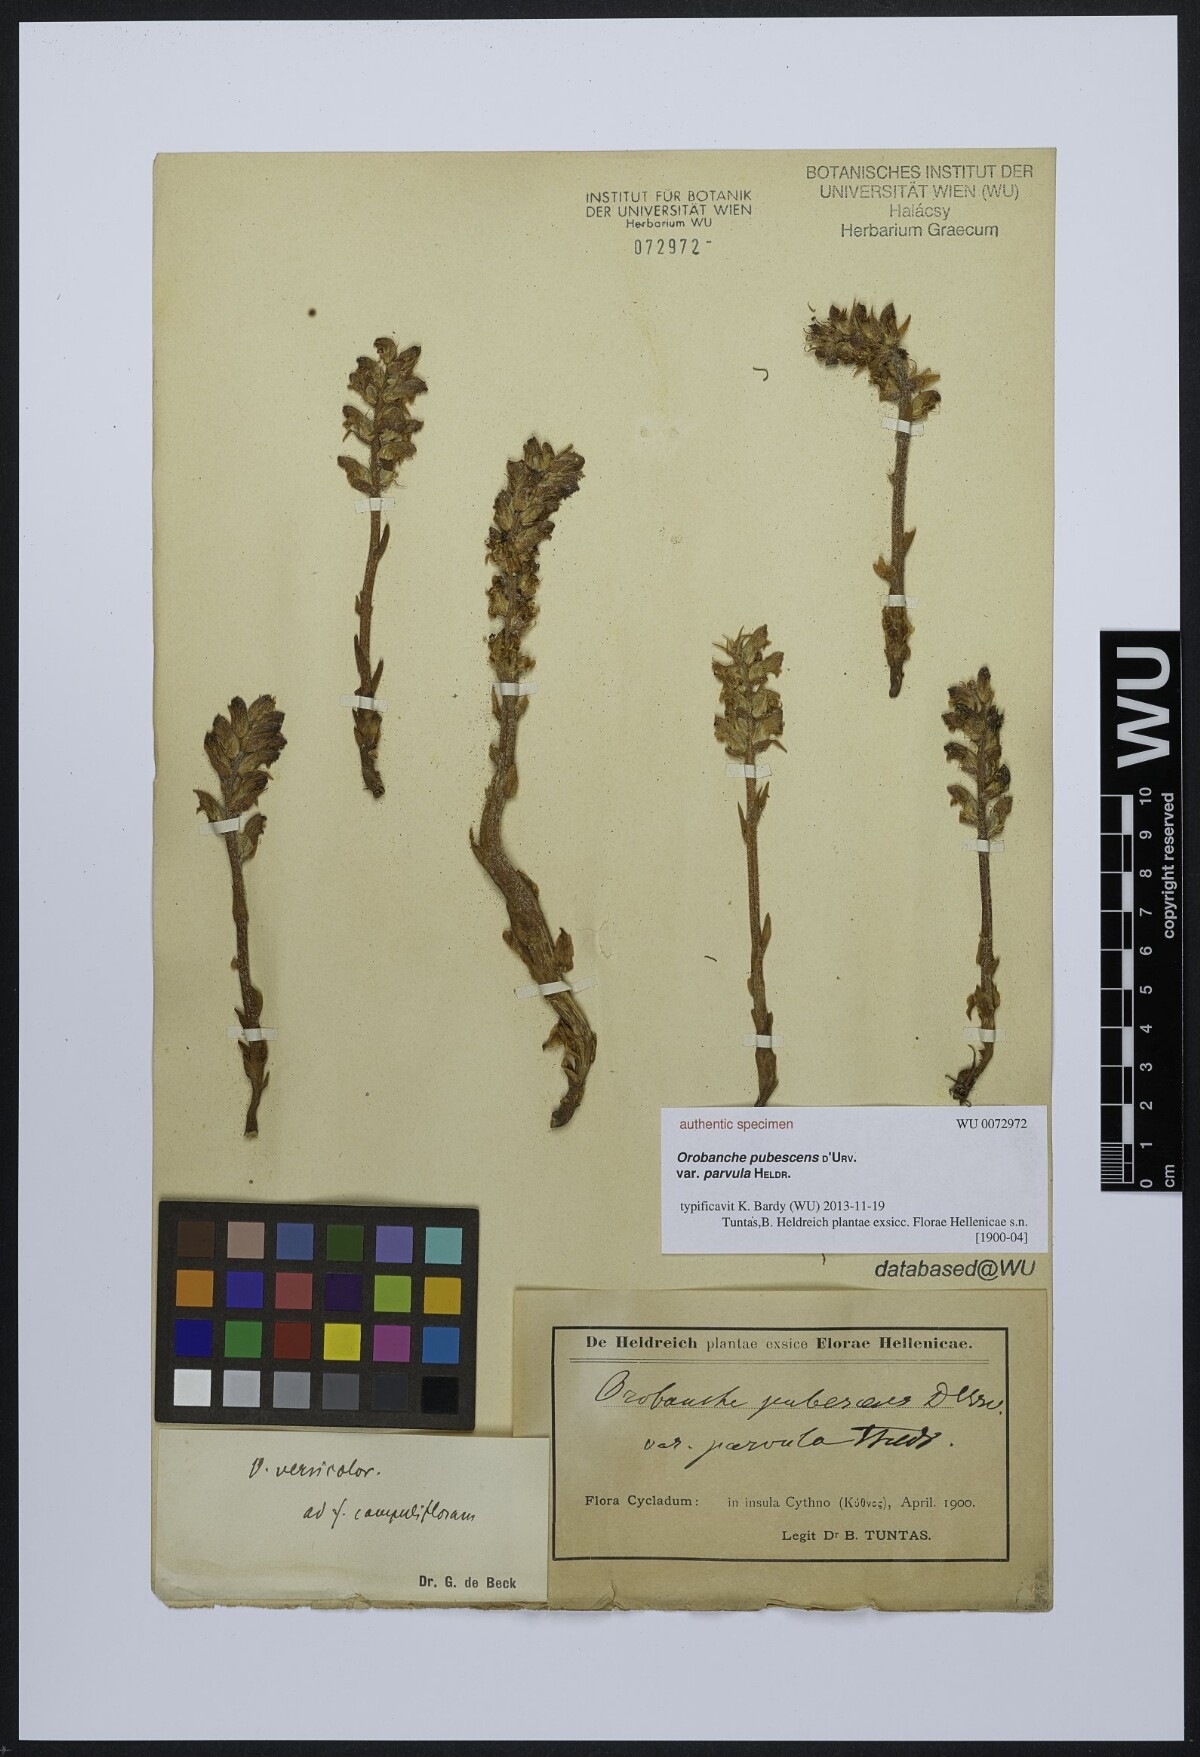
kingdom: Plantae
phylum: Tracheophyta
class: Magnoliopsida
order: Lamiales
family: Orobanchaceae
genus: Orobanche
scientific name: Orobanche pubescens
